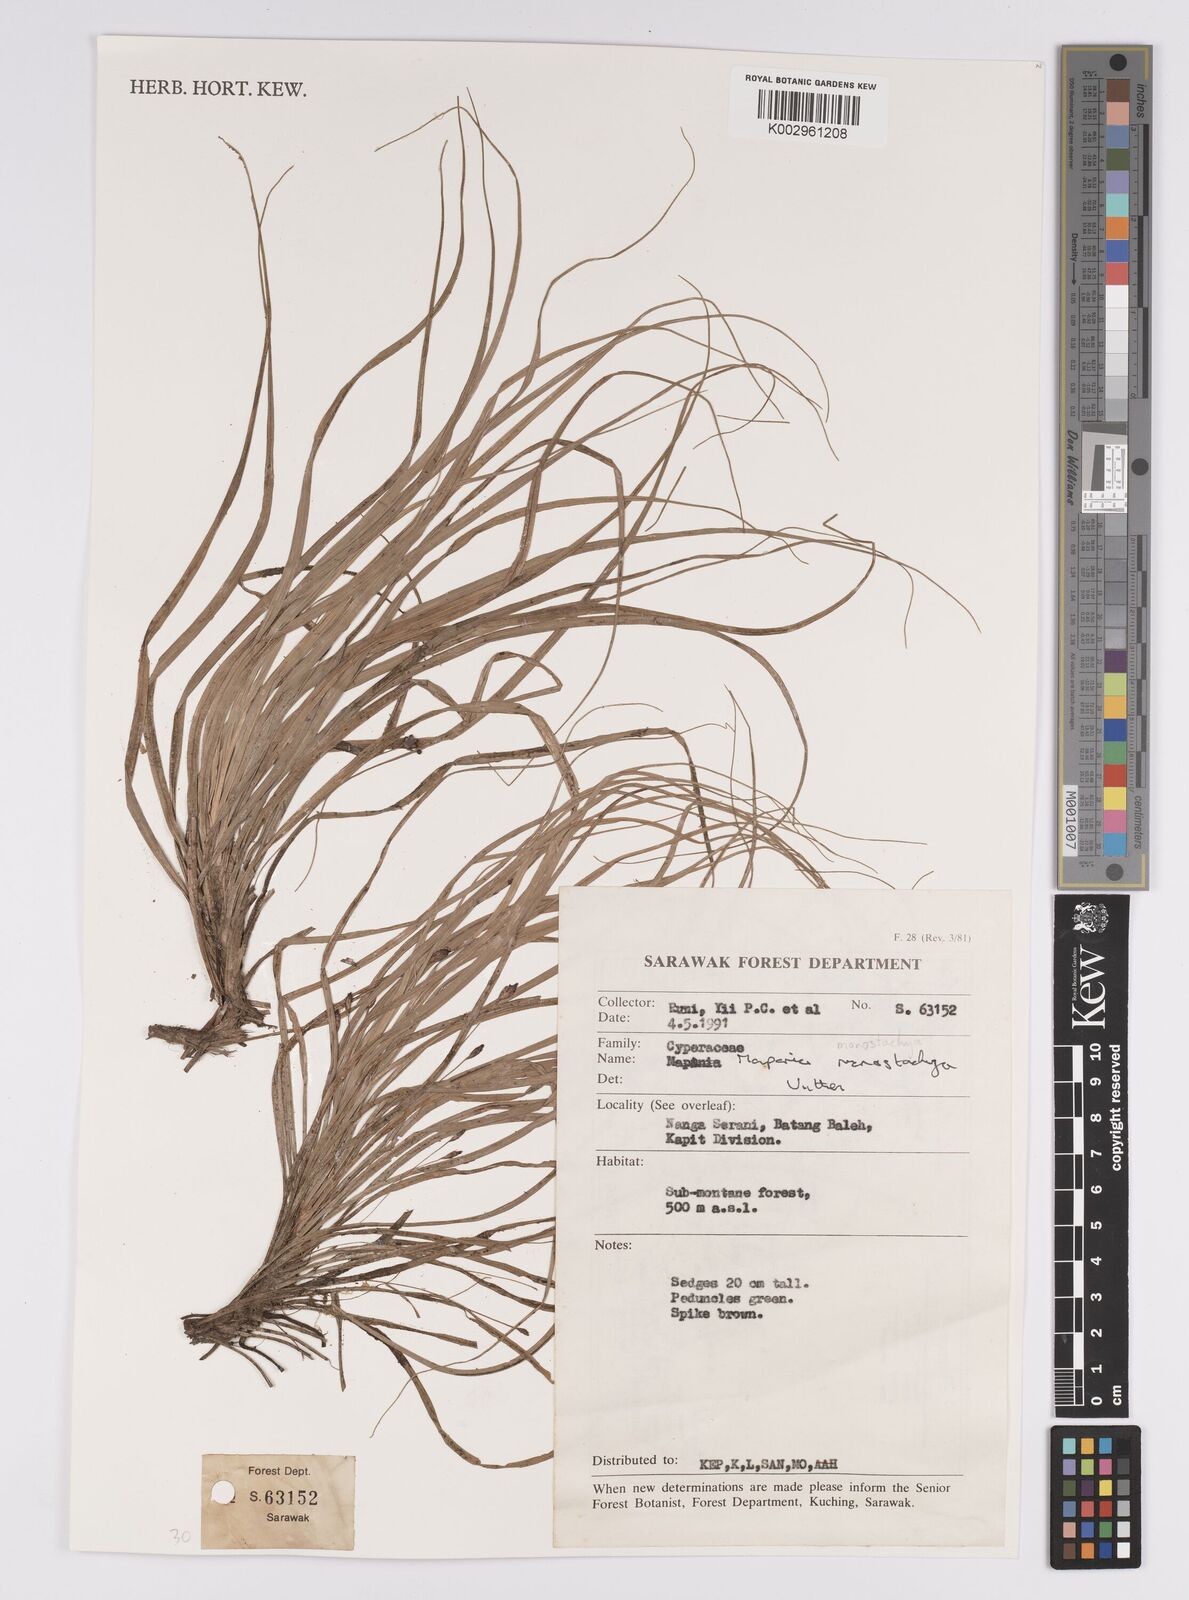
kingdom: Plantae
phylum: Tracheophyta
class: Liliopsida
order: Poales
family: Cyperaceae
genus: Mapania
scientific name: Mapania monostachya
